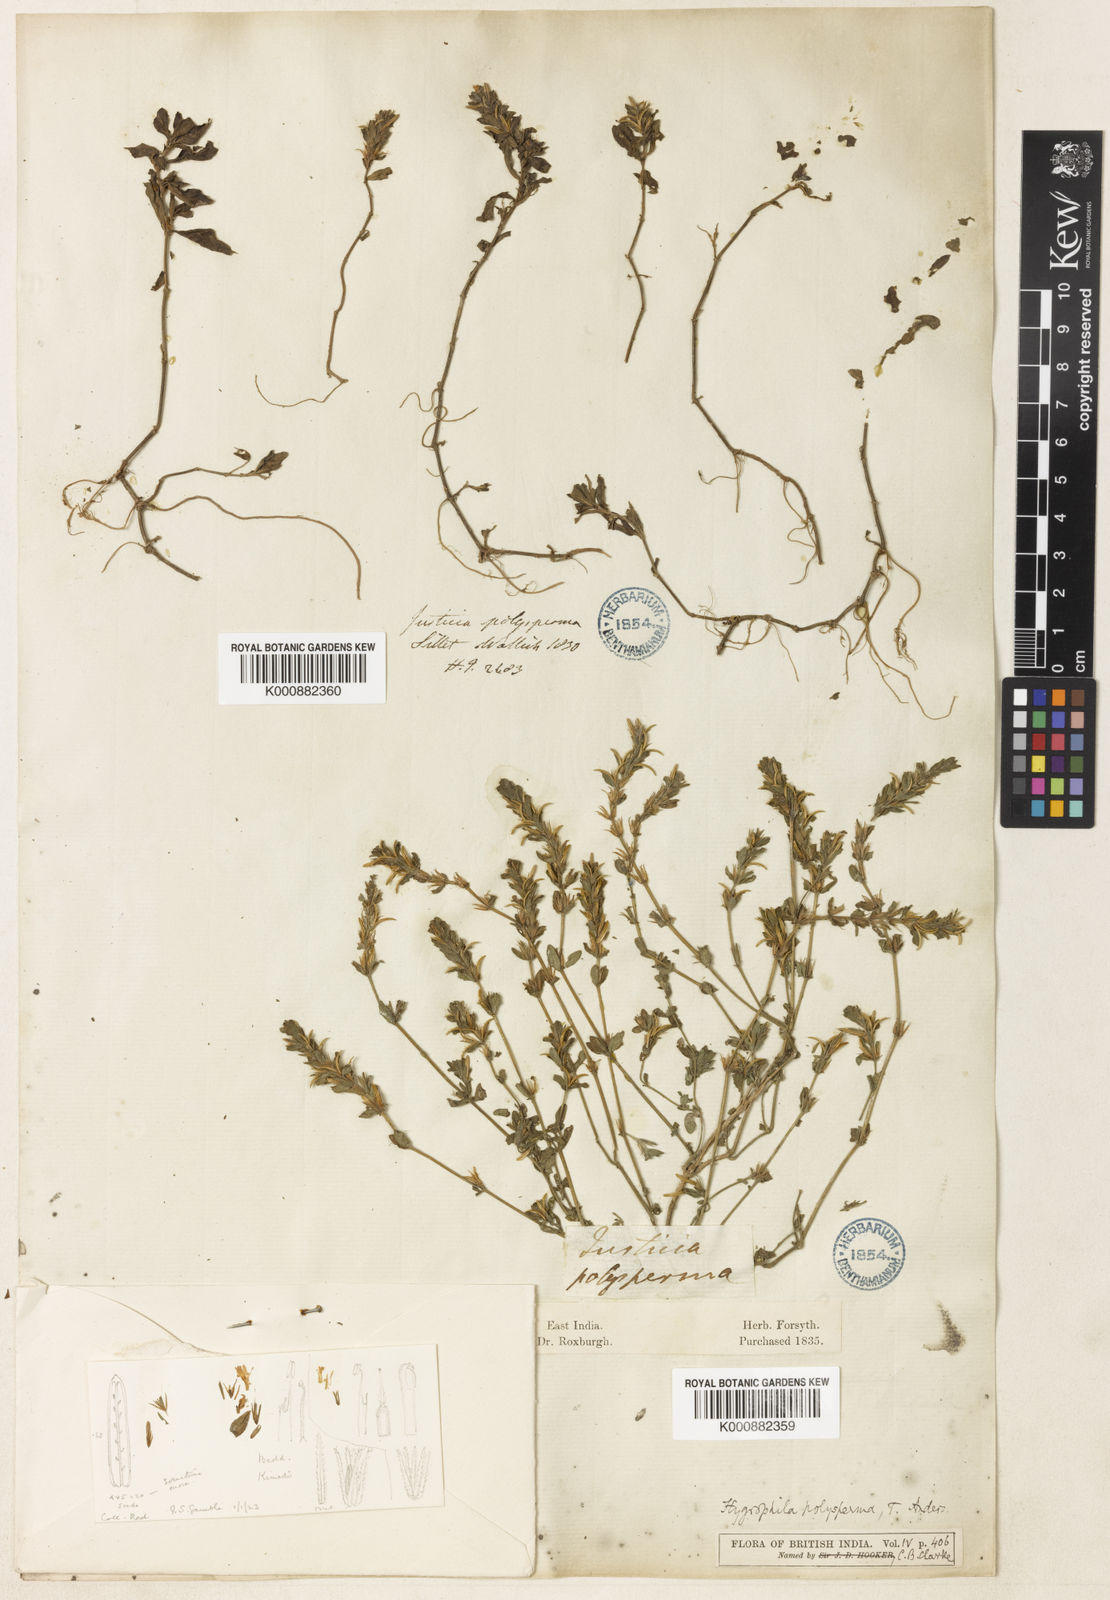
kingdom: Plantae
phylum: Tracheophyta
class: Magnoliopsida
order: Lamiales
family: Acanthaceae
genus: Hygrophila
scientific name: Hygrophila polysperma
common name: Indian swampweed
